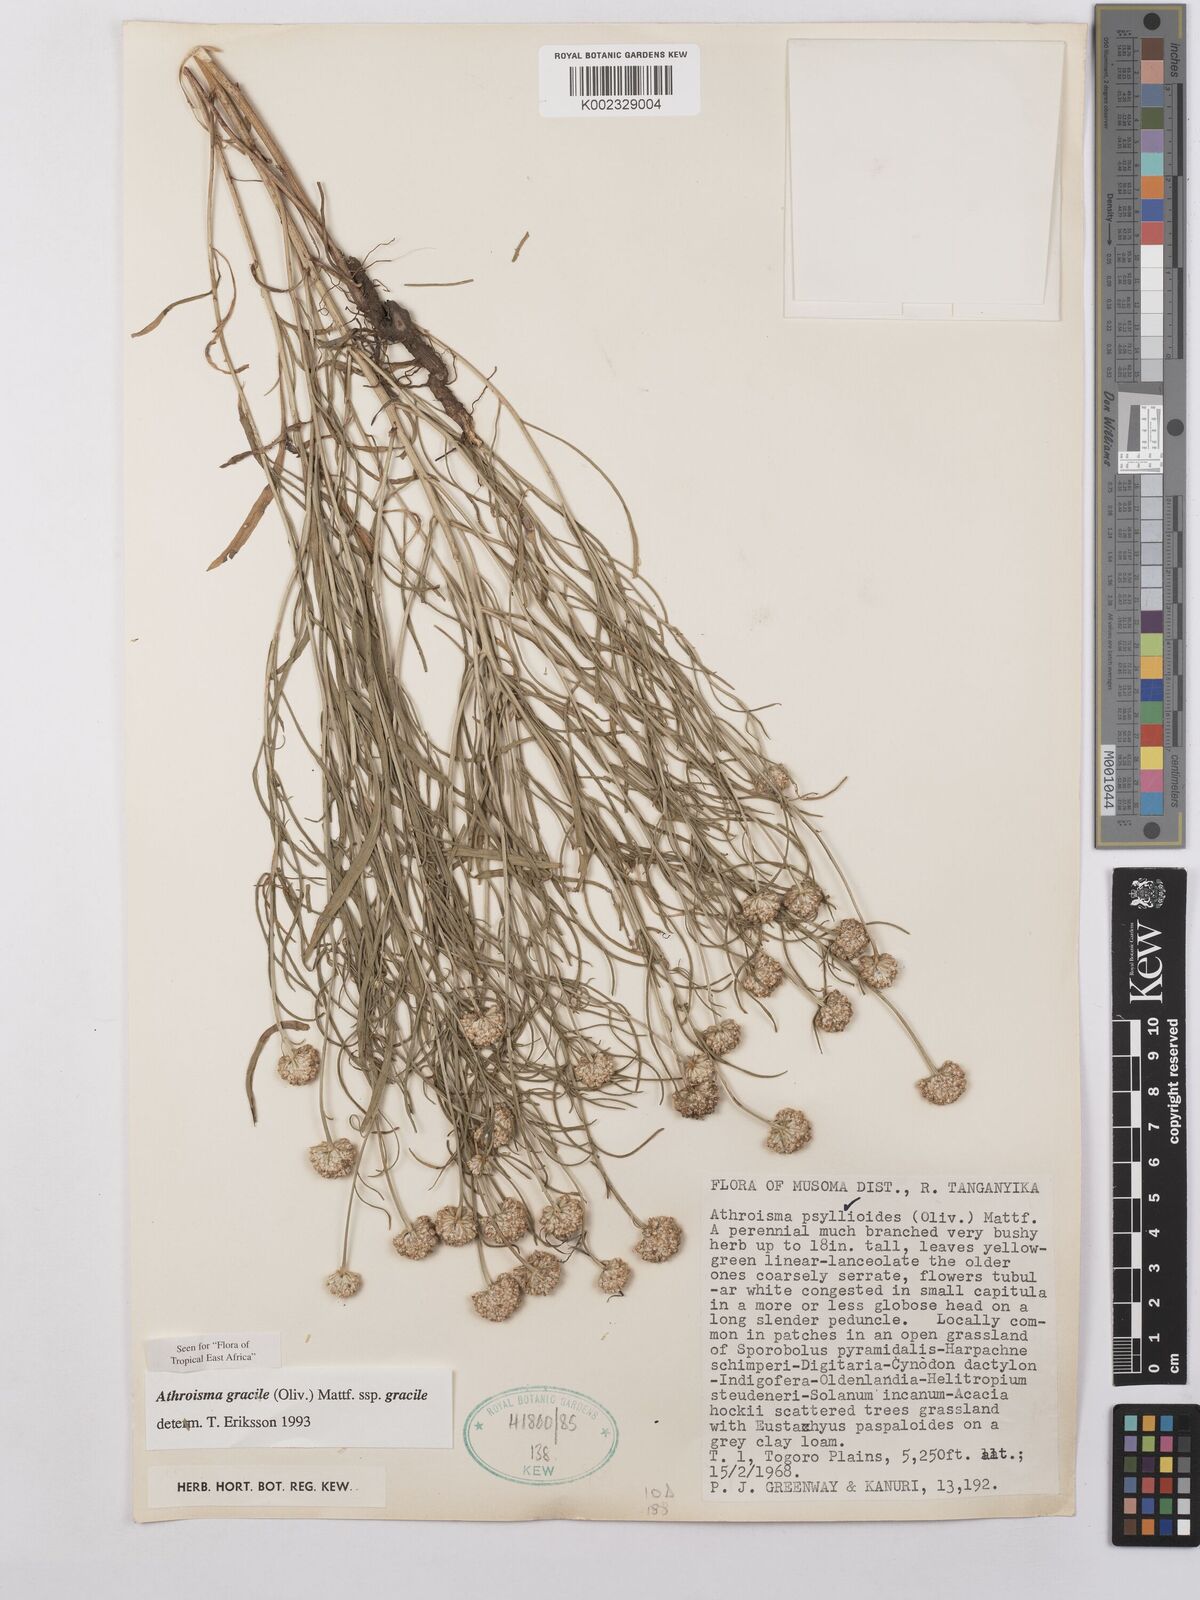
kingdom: Plantae
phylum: Tracheophyta
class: Magnoliopsida
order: Asterales
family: Asteraceae
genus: Athroisma
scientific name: Athroisma gracile
